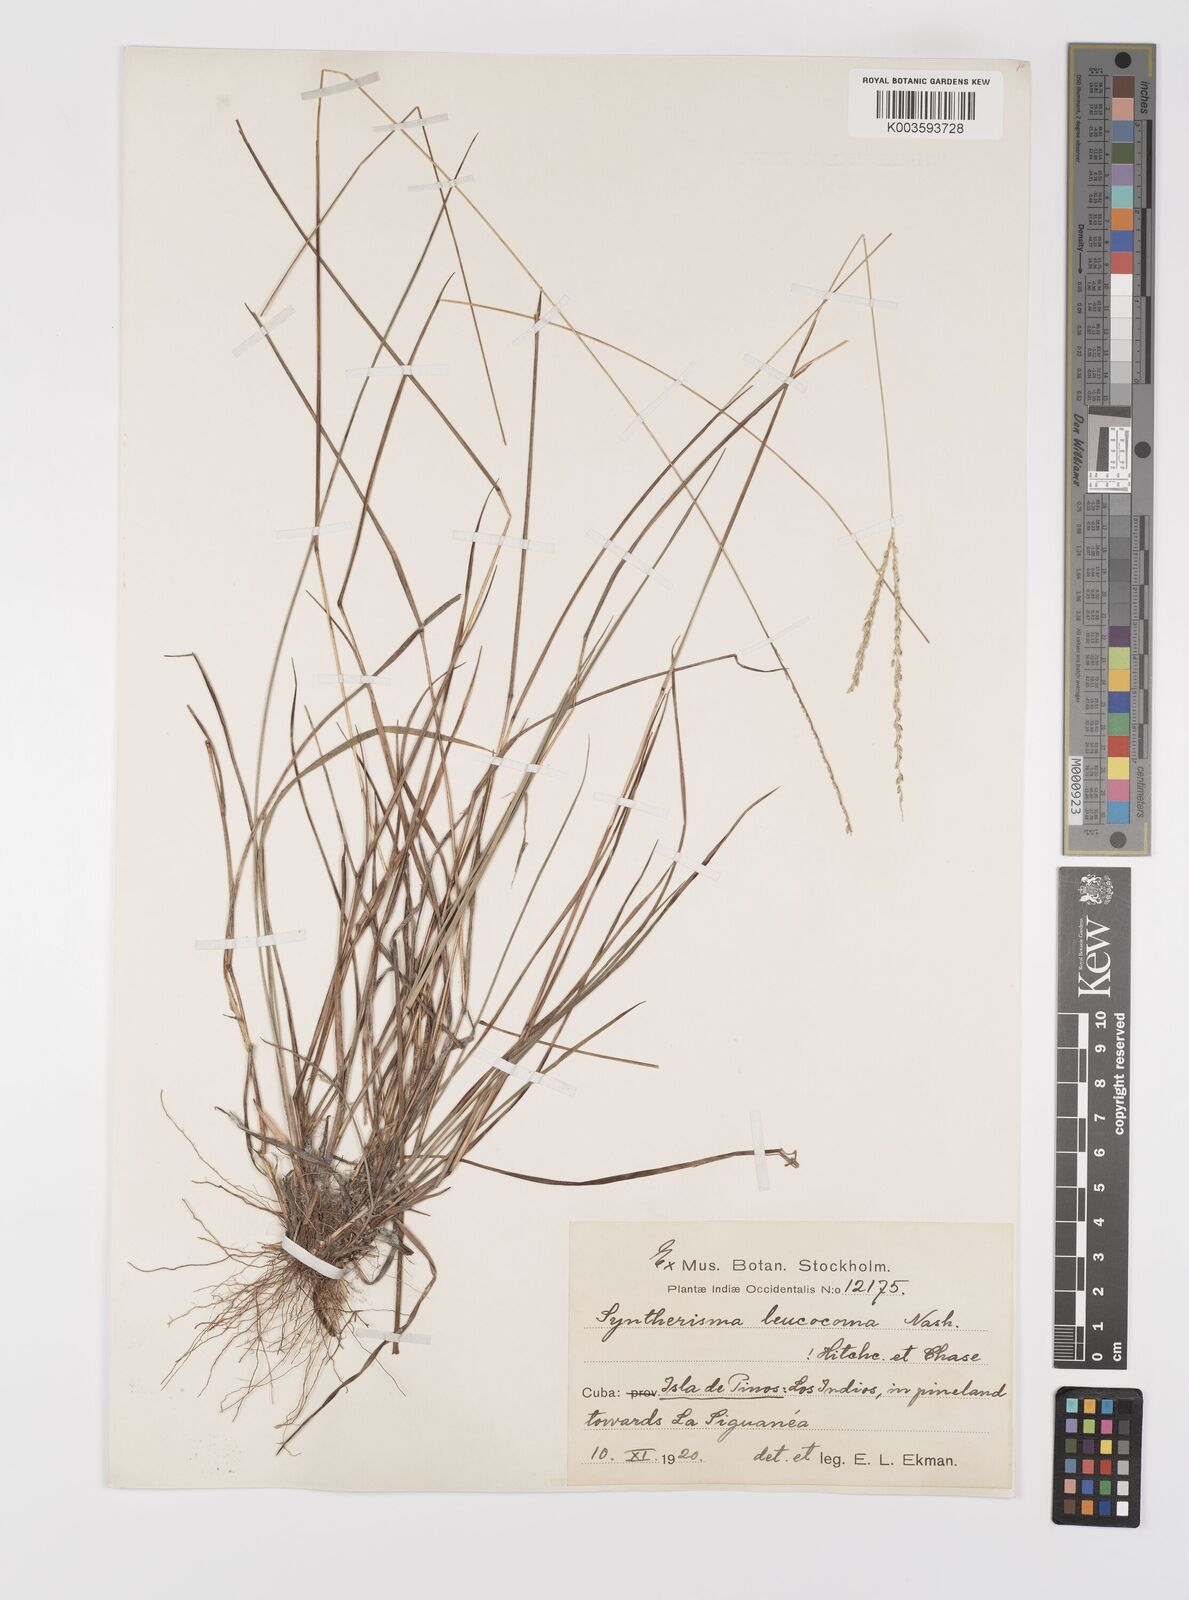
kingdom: Plantae
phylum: Tracheophyta
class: Liliopsida
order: Poales
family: Poaceae
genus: Digitaria
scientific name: Digitaria villosa
